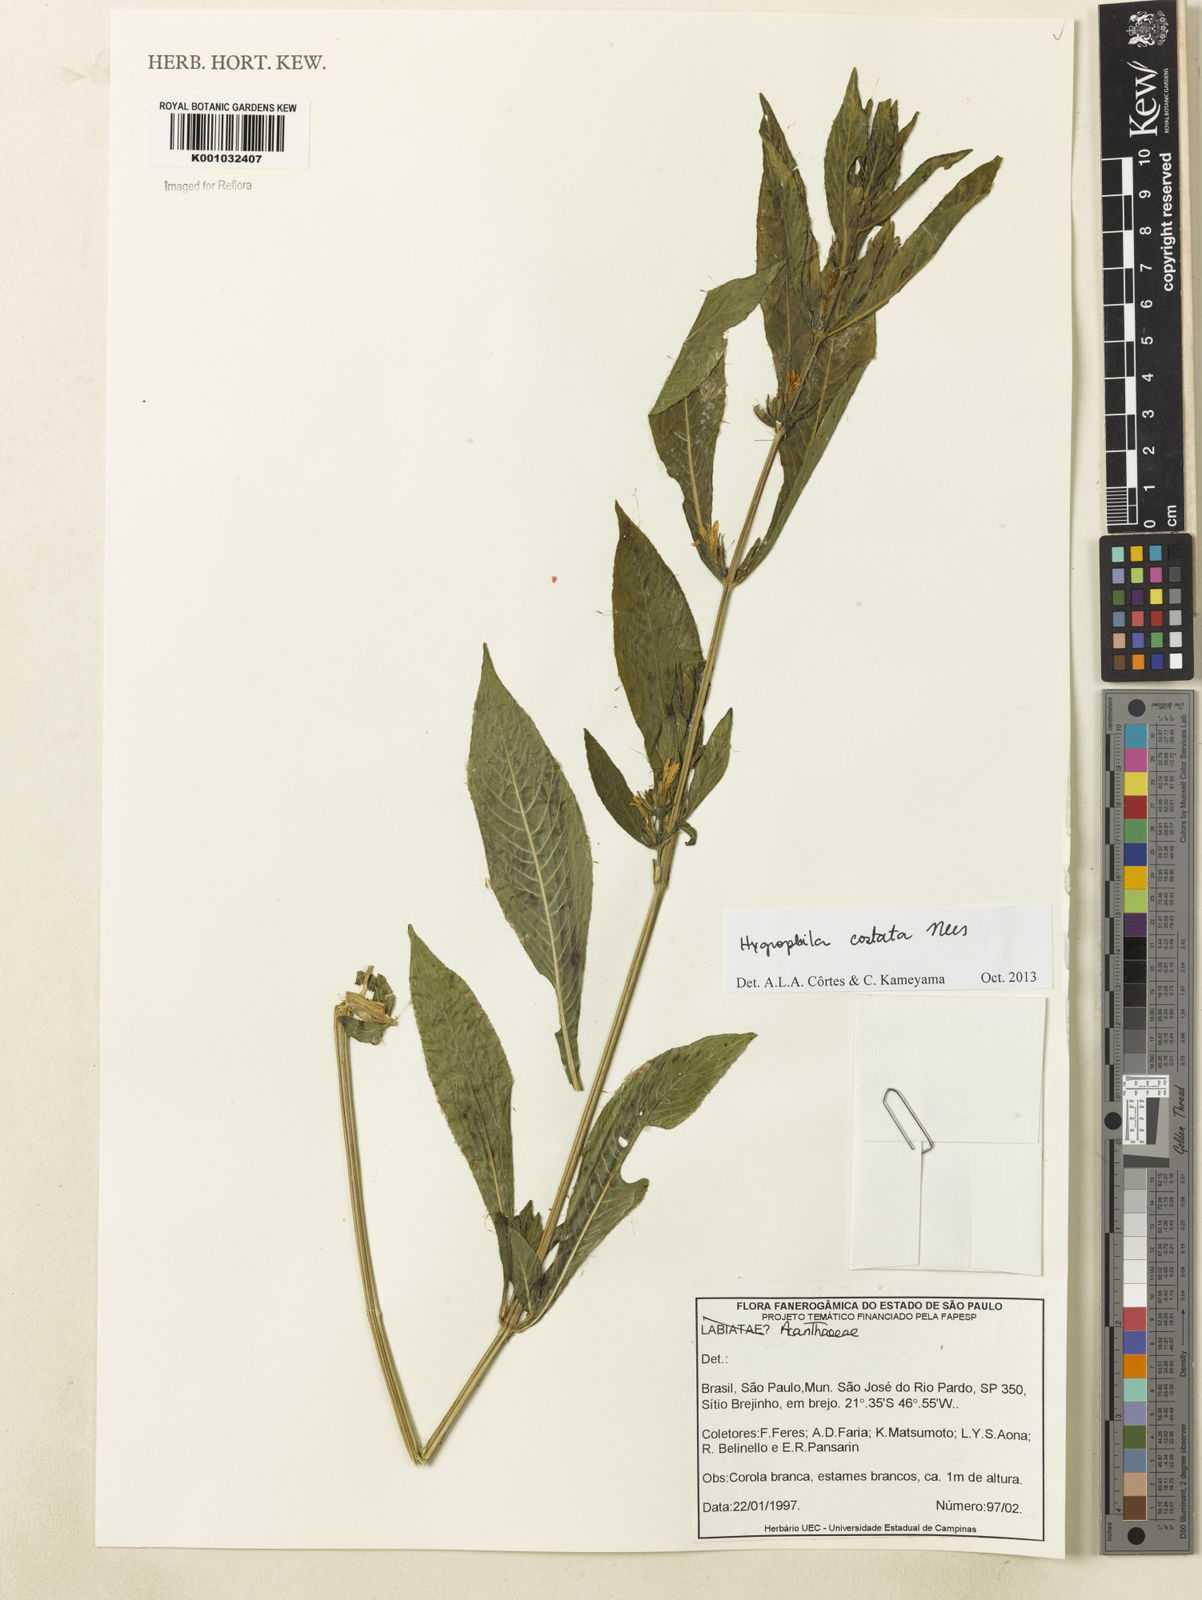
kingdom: Plantae
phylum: Tracheophyta
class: Magnoliopsida
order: Lamiales
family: Acanthaceae
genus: Hygrophila
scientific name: Hygrophila costata
